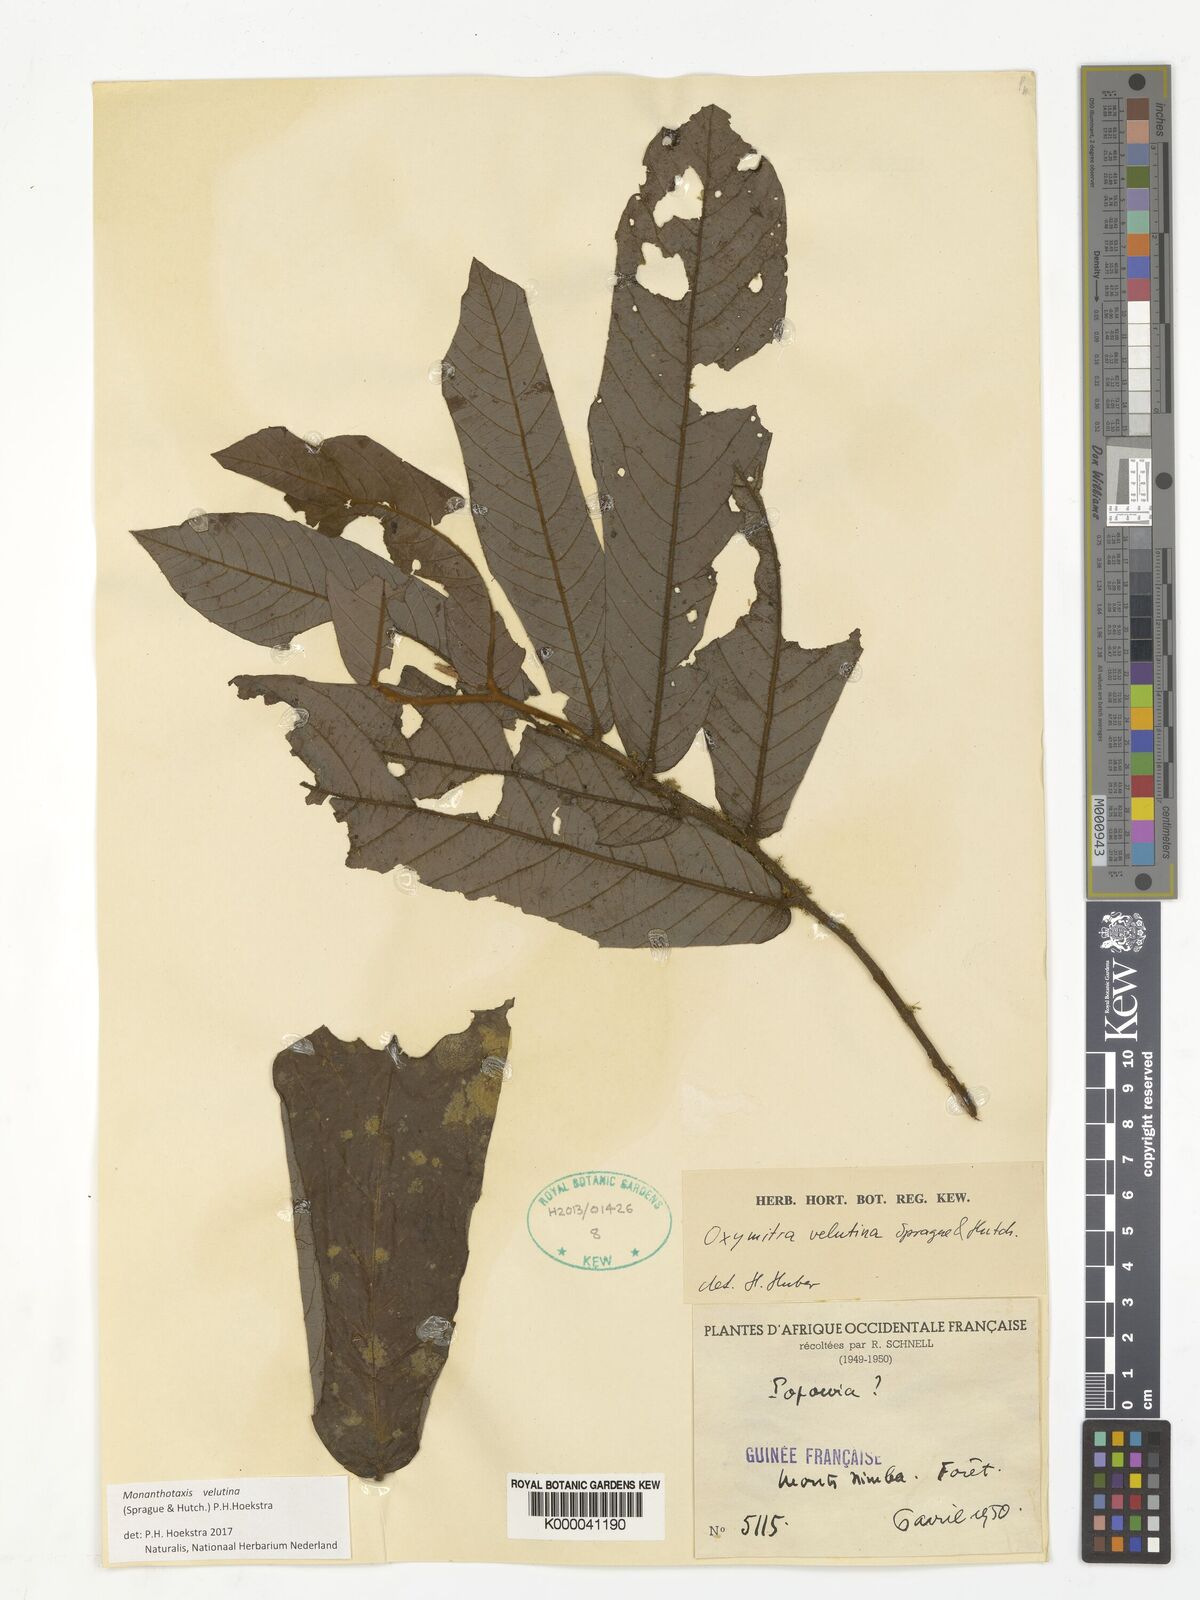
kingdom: Plantae
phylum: Tracheophyta
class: Magnoliopsida
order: Magnoliales
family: Annonaceae
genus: Friesodielsia
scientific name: Friesodielsia velutina
